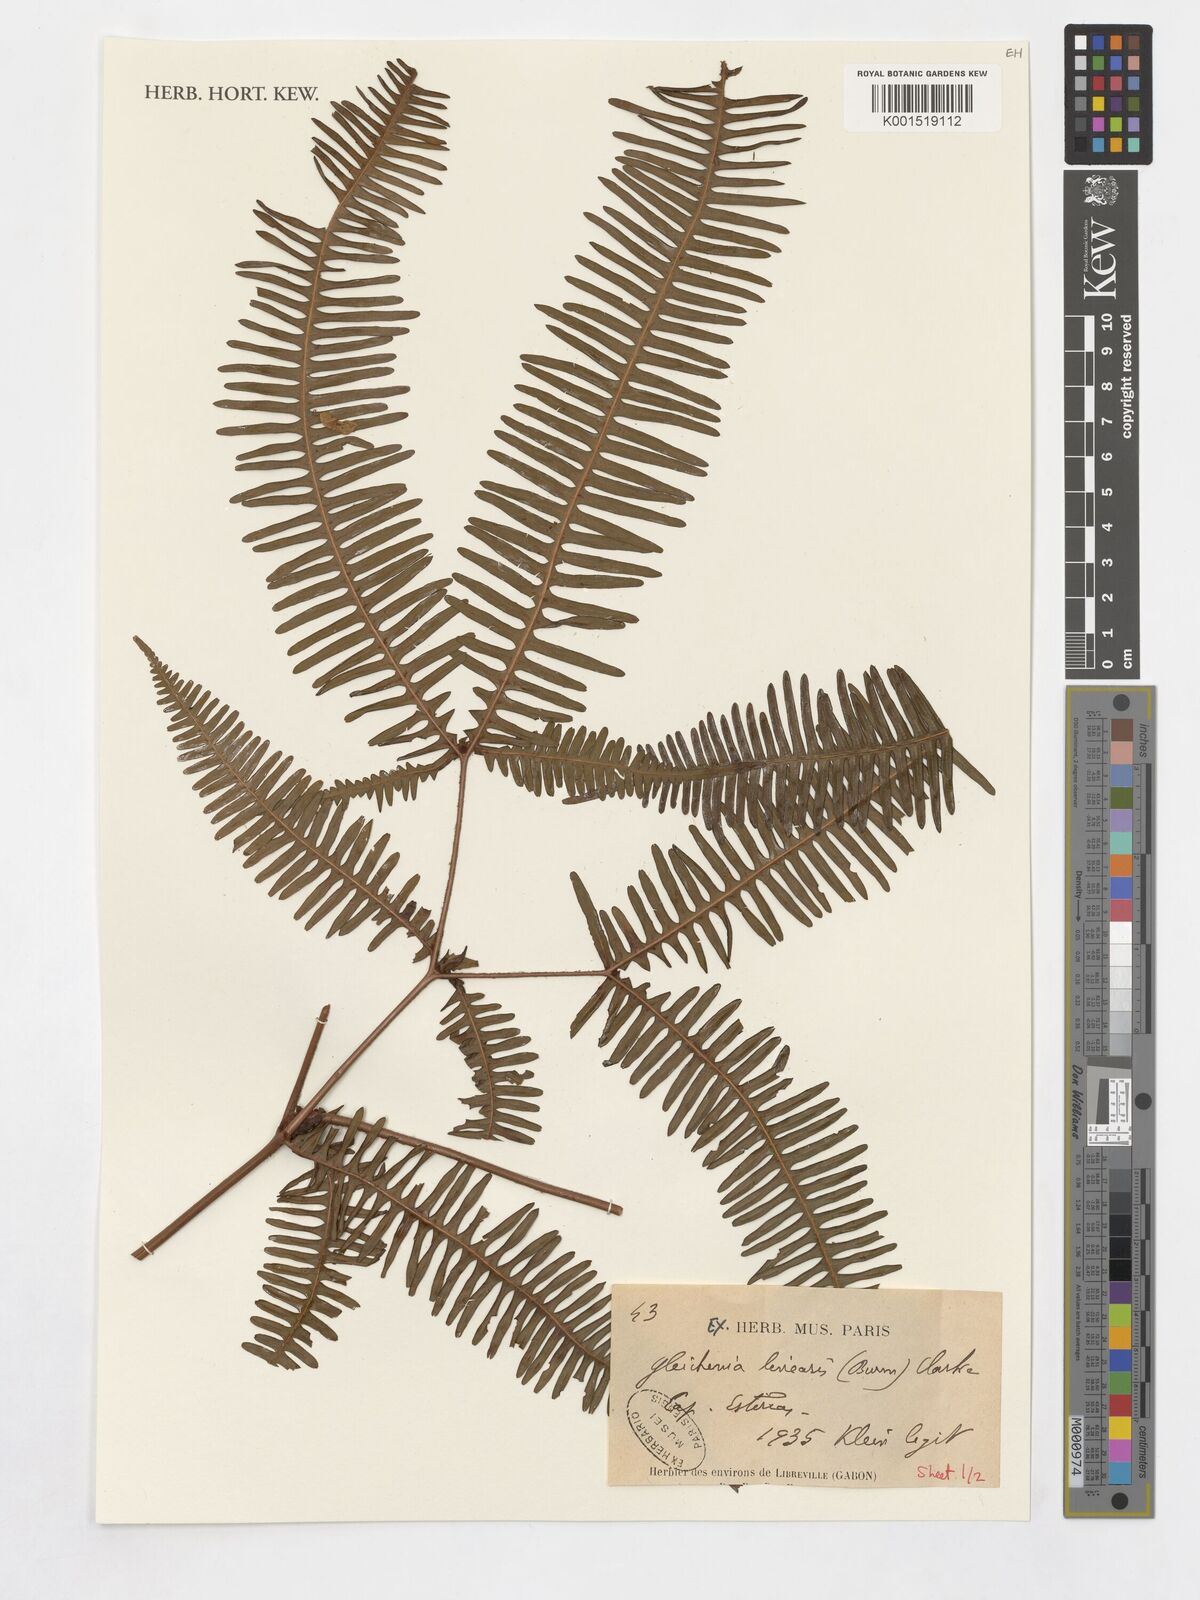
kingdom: Plantae
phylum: Tracheophyta
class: Polypodiopsida
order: Gleicheniales
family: Gleicheniaceae
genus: Dicranopteris
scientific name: Dicranopteris linearis
